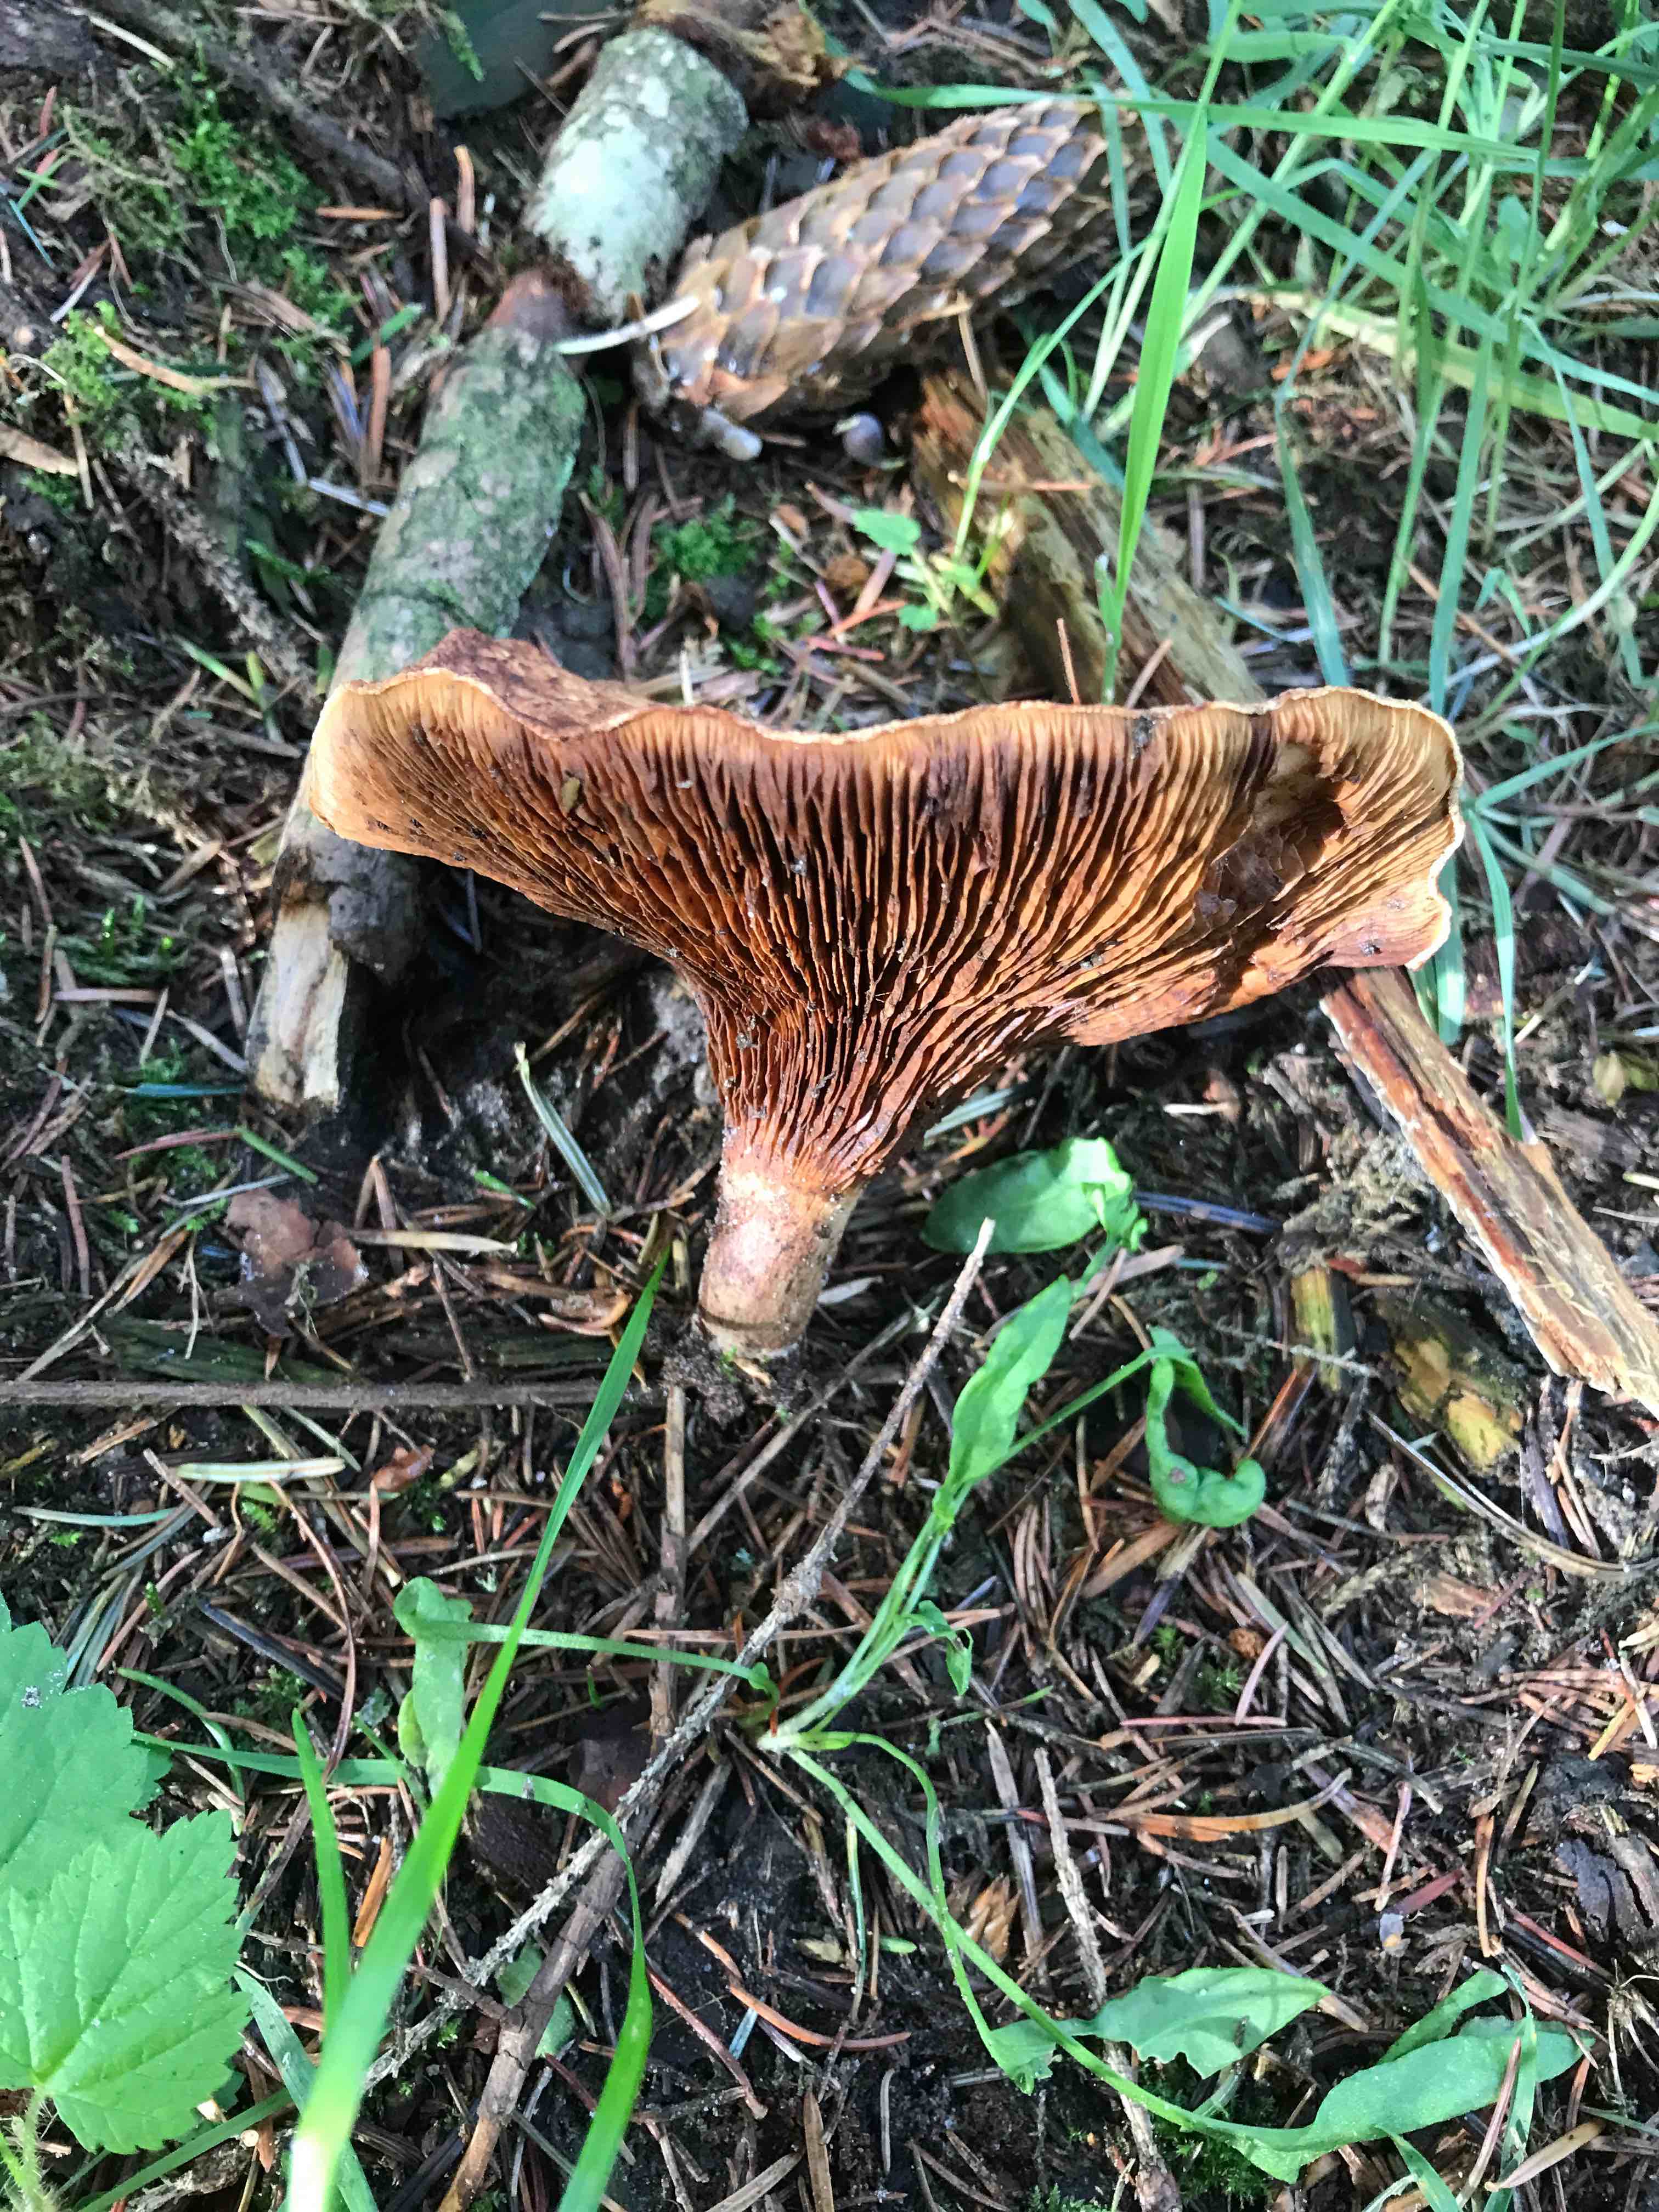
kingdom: Fungi
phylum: Basidiomycota
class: Agaricomycetes
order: Boletales
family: Paxillaceae
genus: Paxillus
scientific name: Paxillus involutus
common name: almindelig netbladhat
